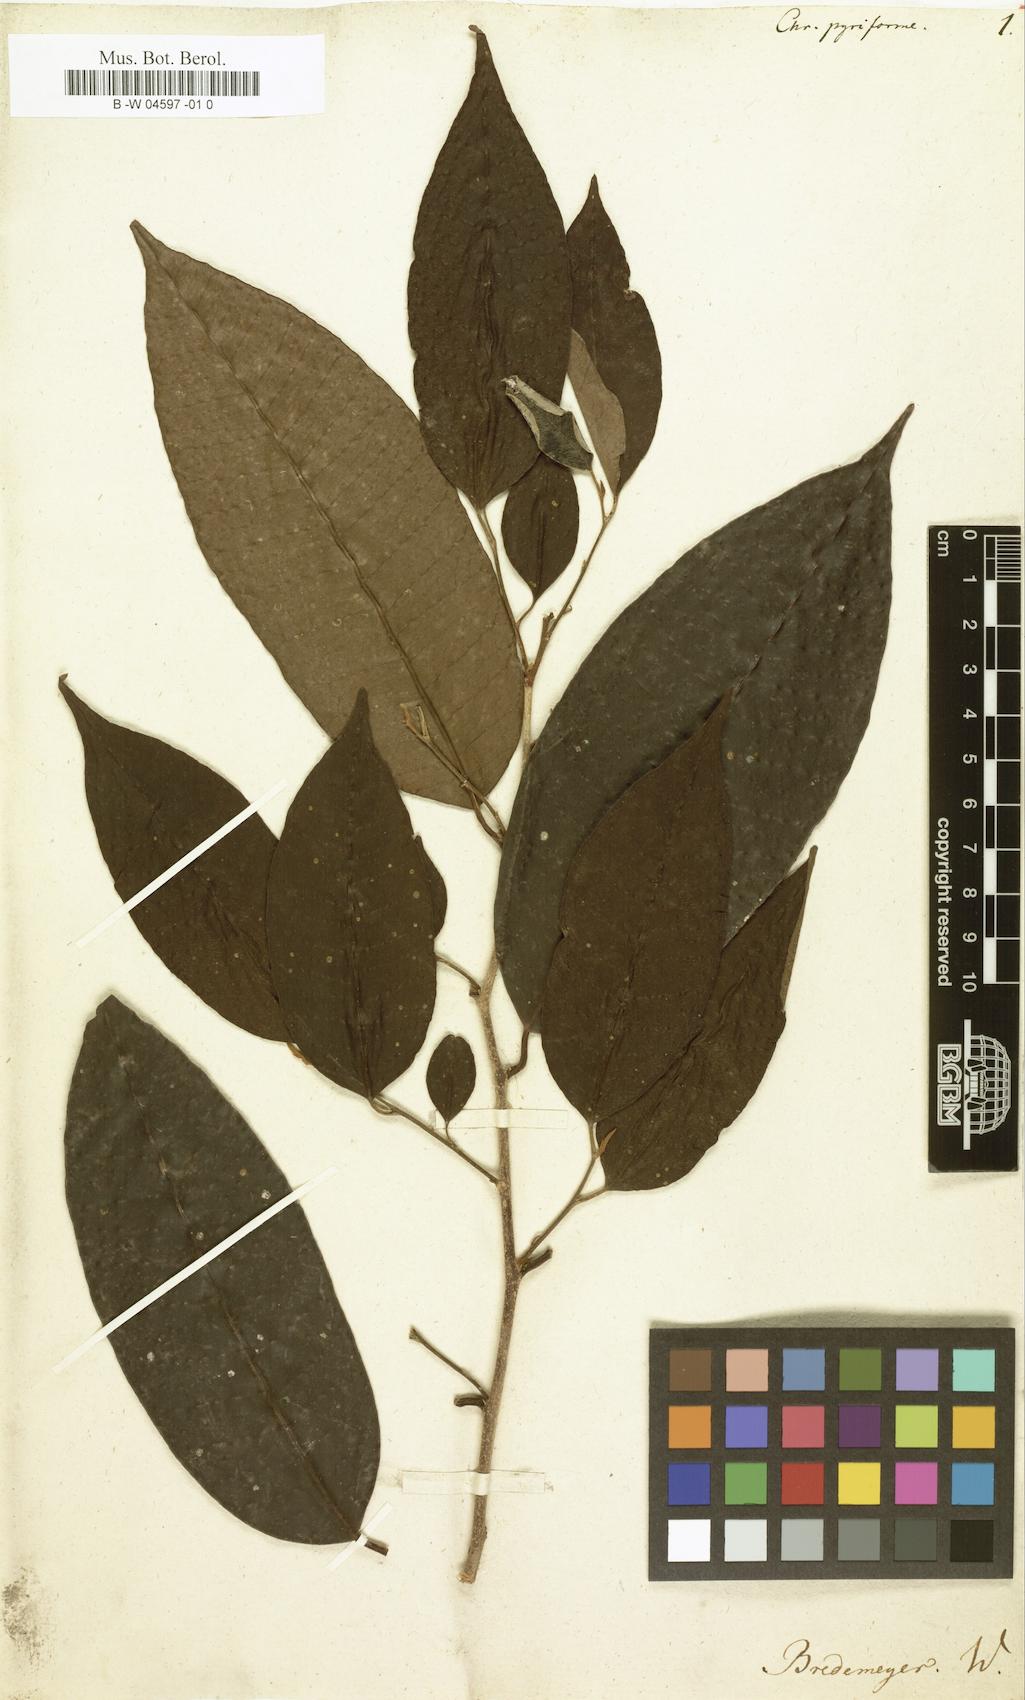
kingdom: Plantae
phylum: Tracheophyta
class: Magnoliopsida
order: Ericales
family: Sapotaceae
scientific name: Sapotaceae
